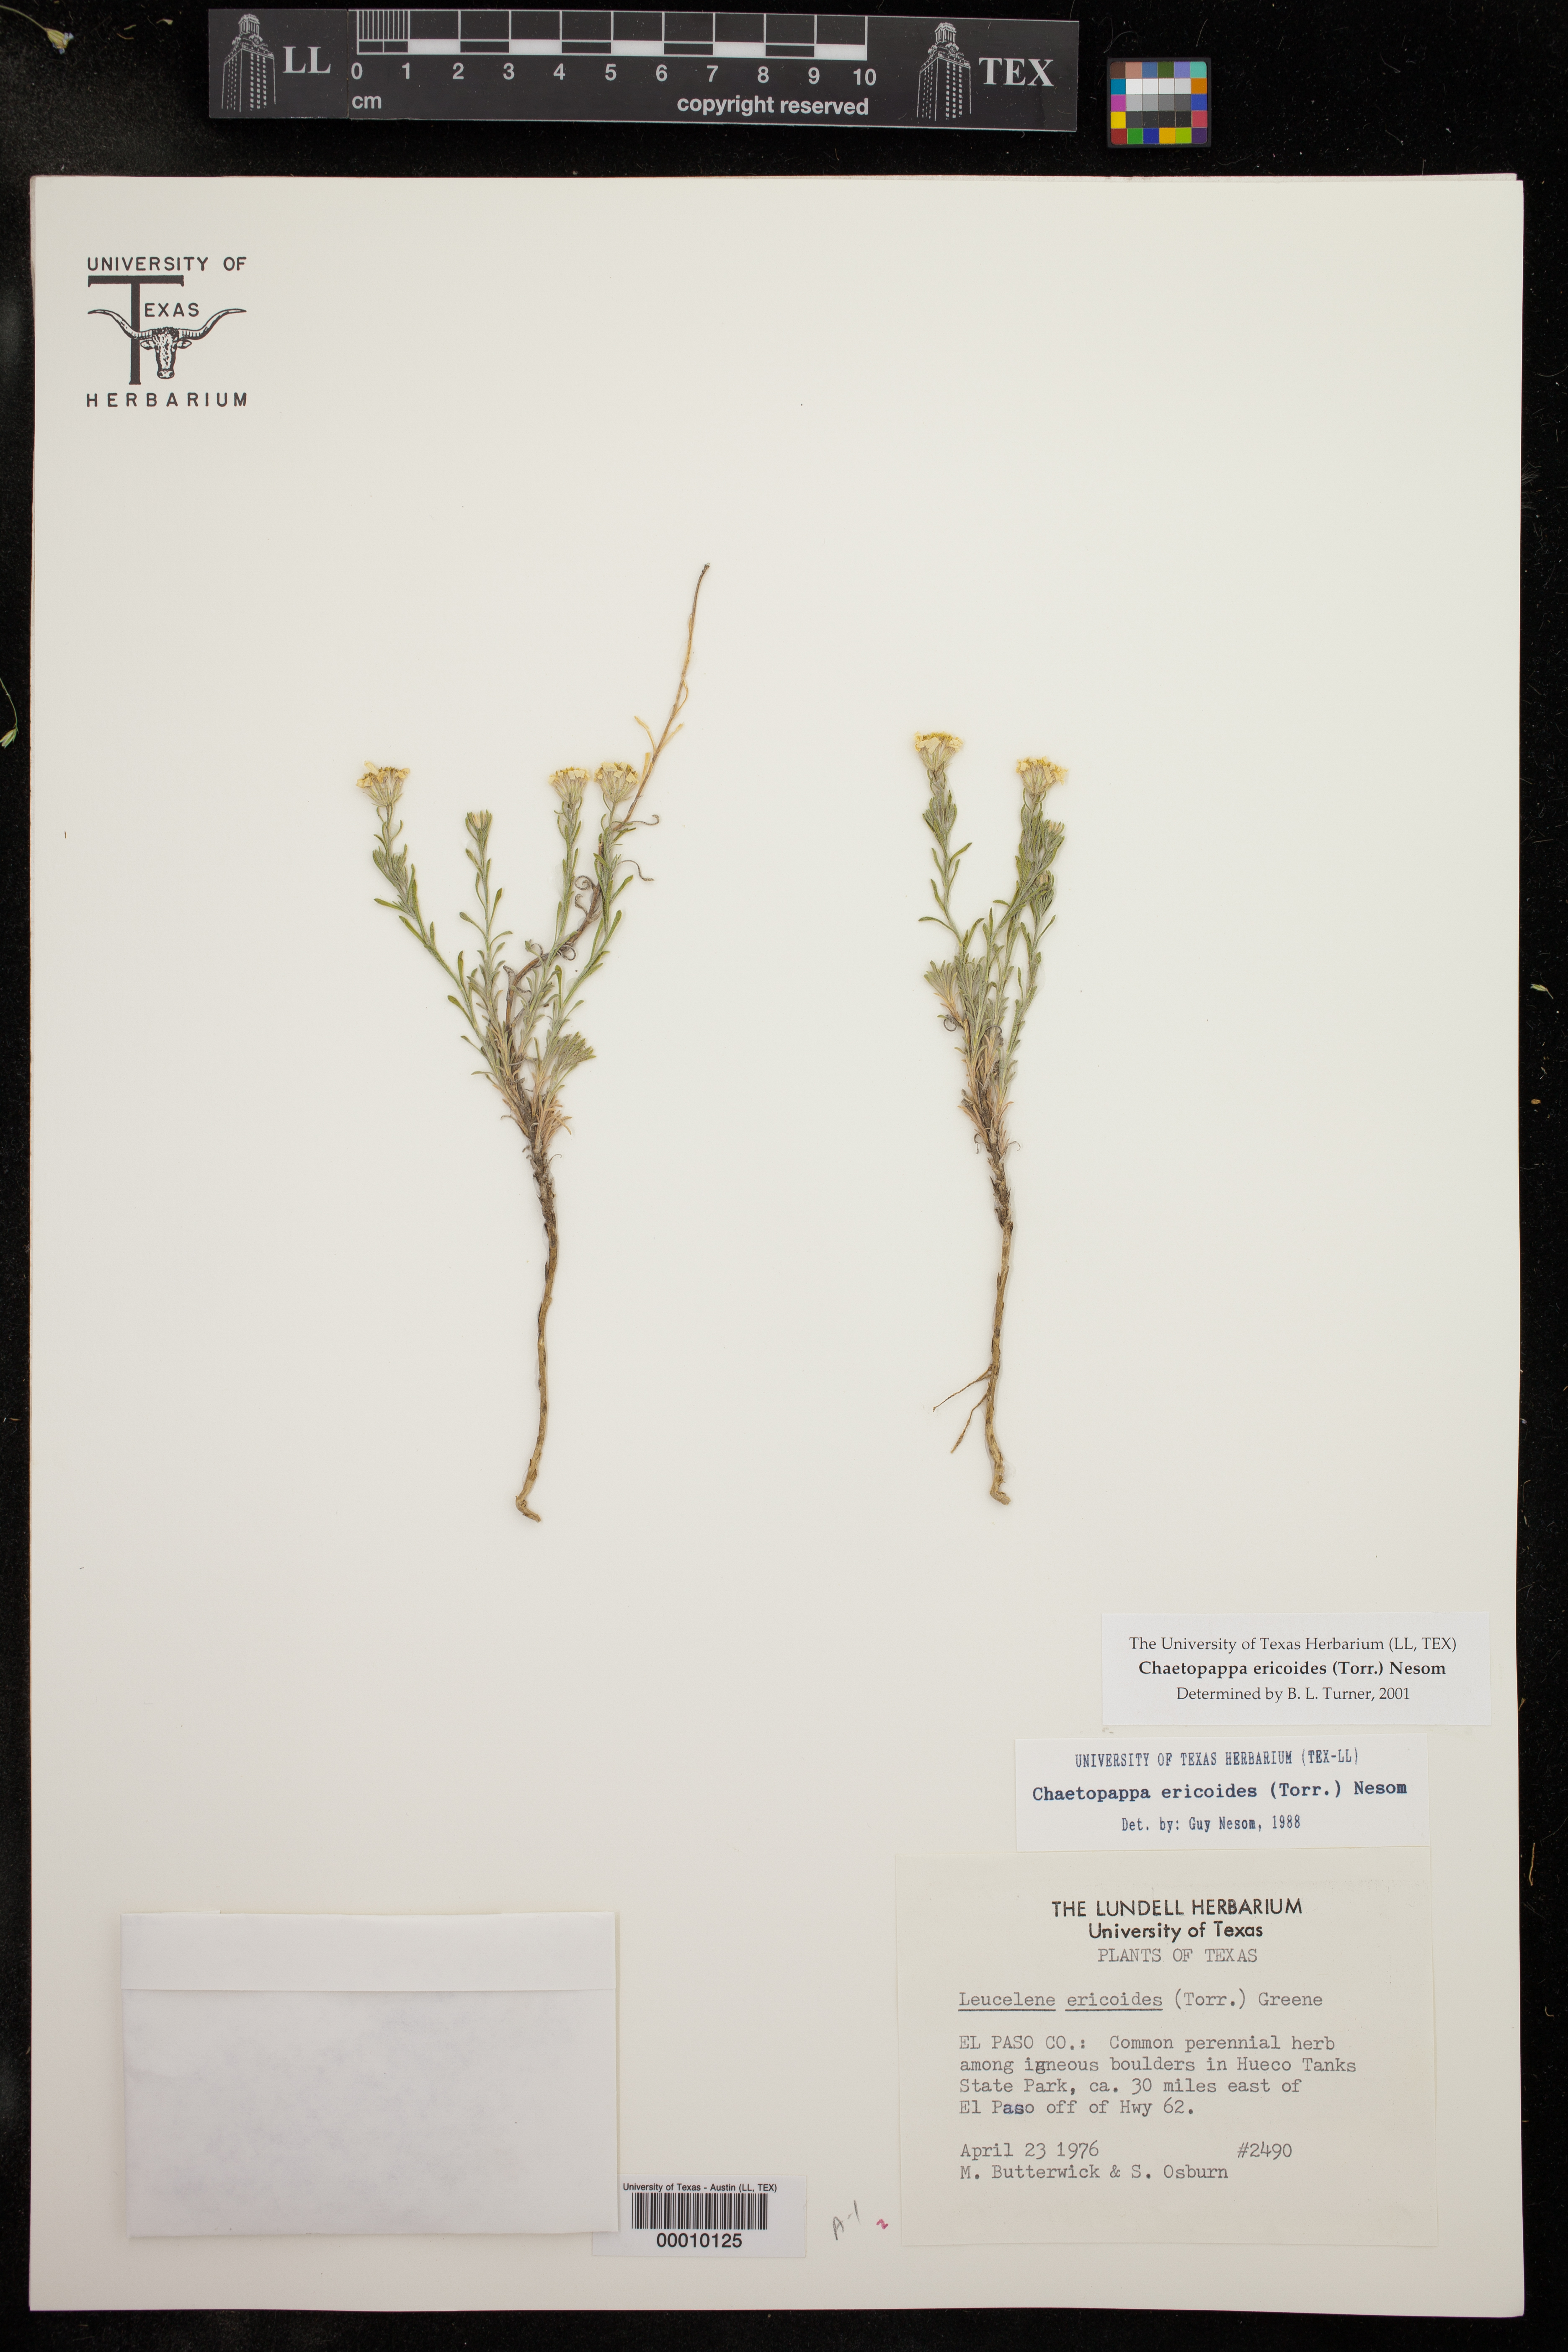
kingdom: Plantae
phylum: Tracheophyta
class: Magnoliopsida
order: Asterales
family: Asteraceae
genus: Chaetopappa
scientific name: Chaetopappa ericoides
